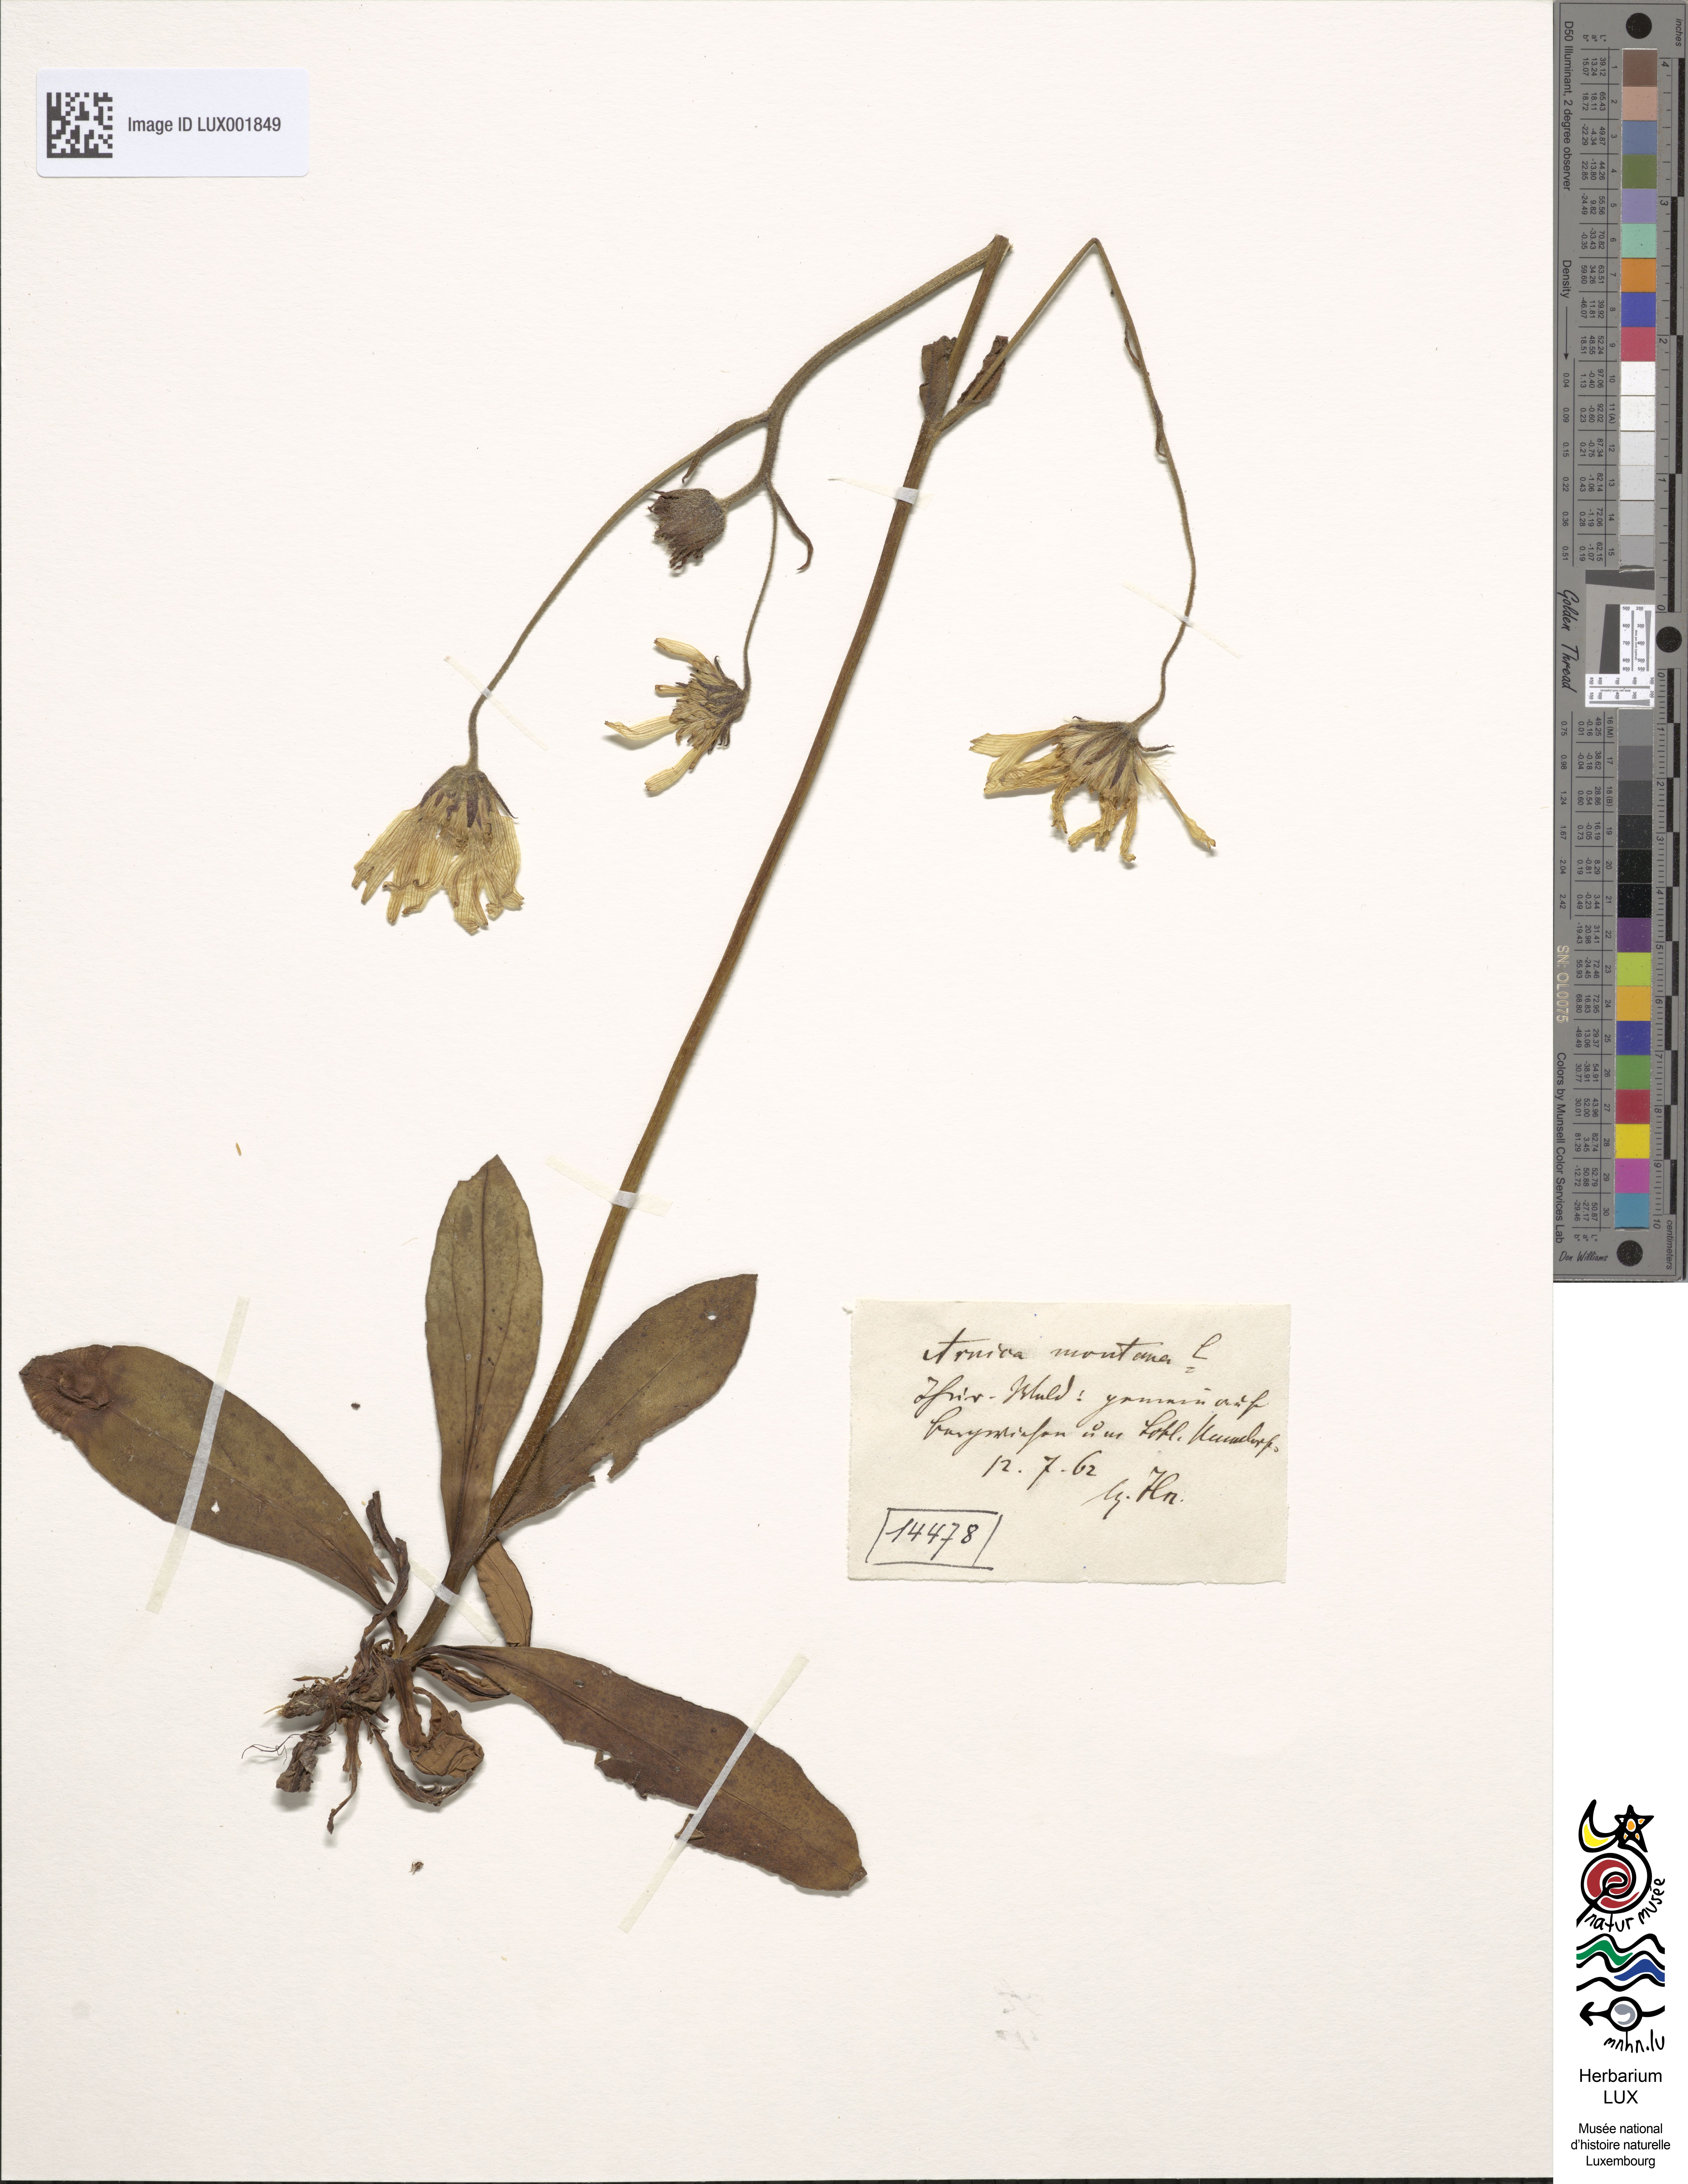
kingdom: Plantae
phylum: Tracheophyta
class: Magnoliopsida
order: Asterales
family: Asteraceae
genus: Arnica
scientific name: Arnica montana
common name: Leopard's bane
